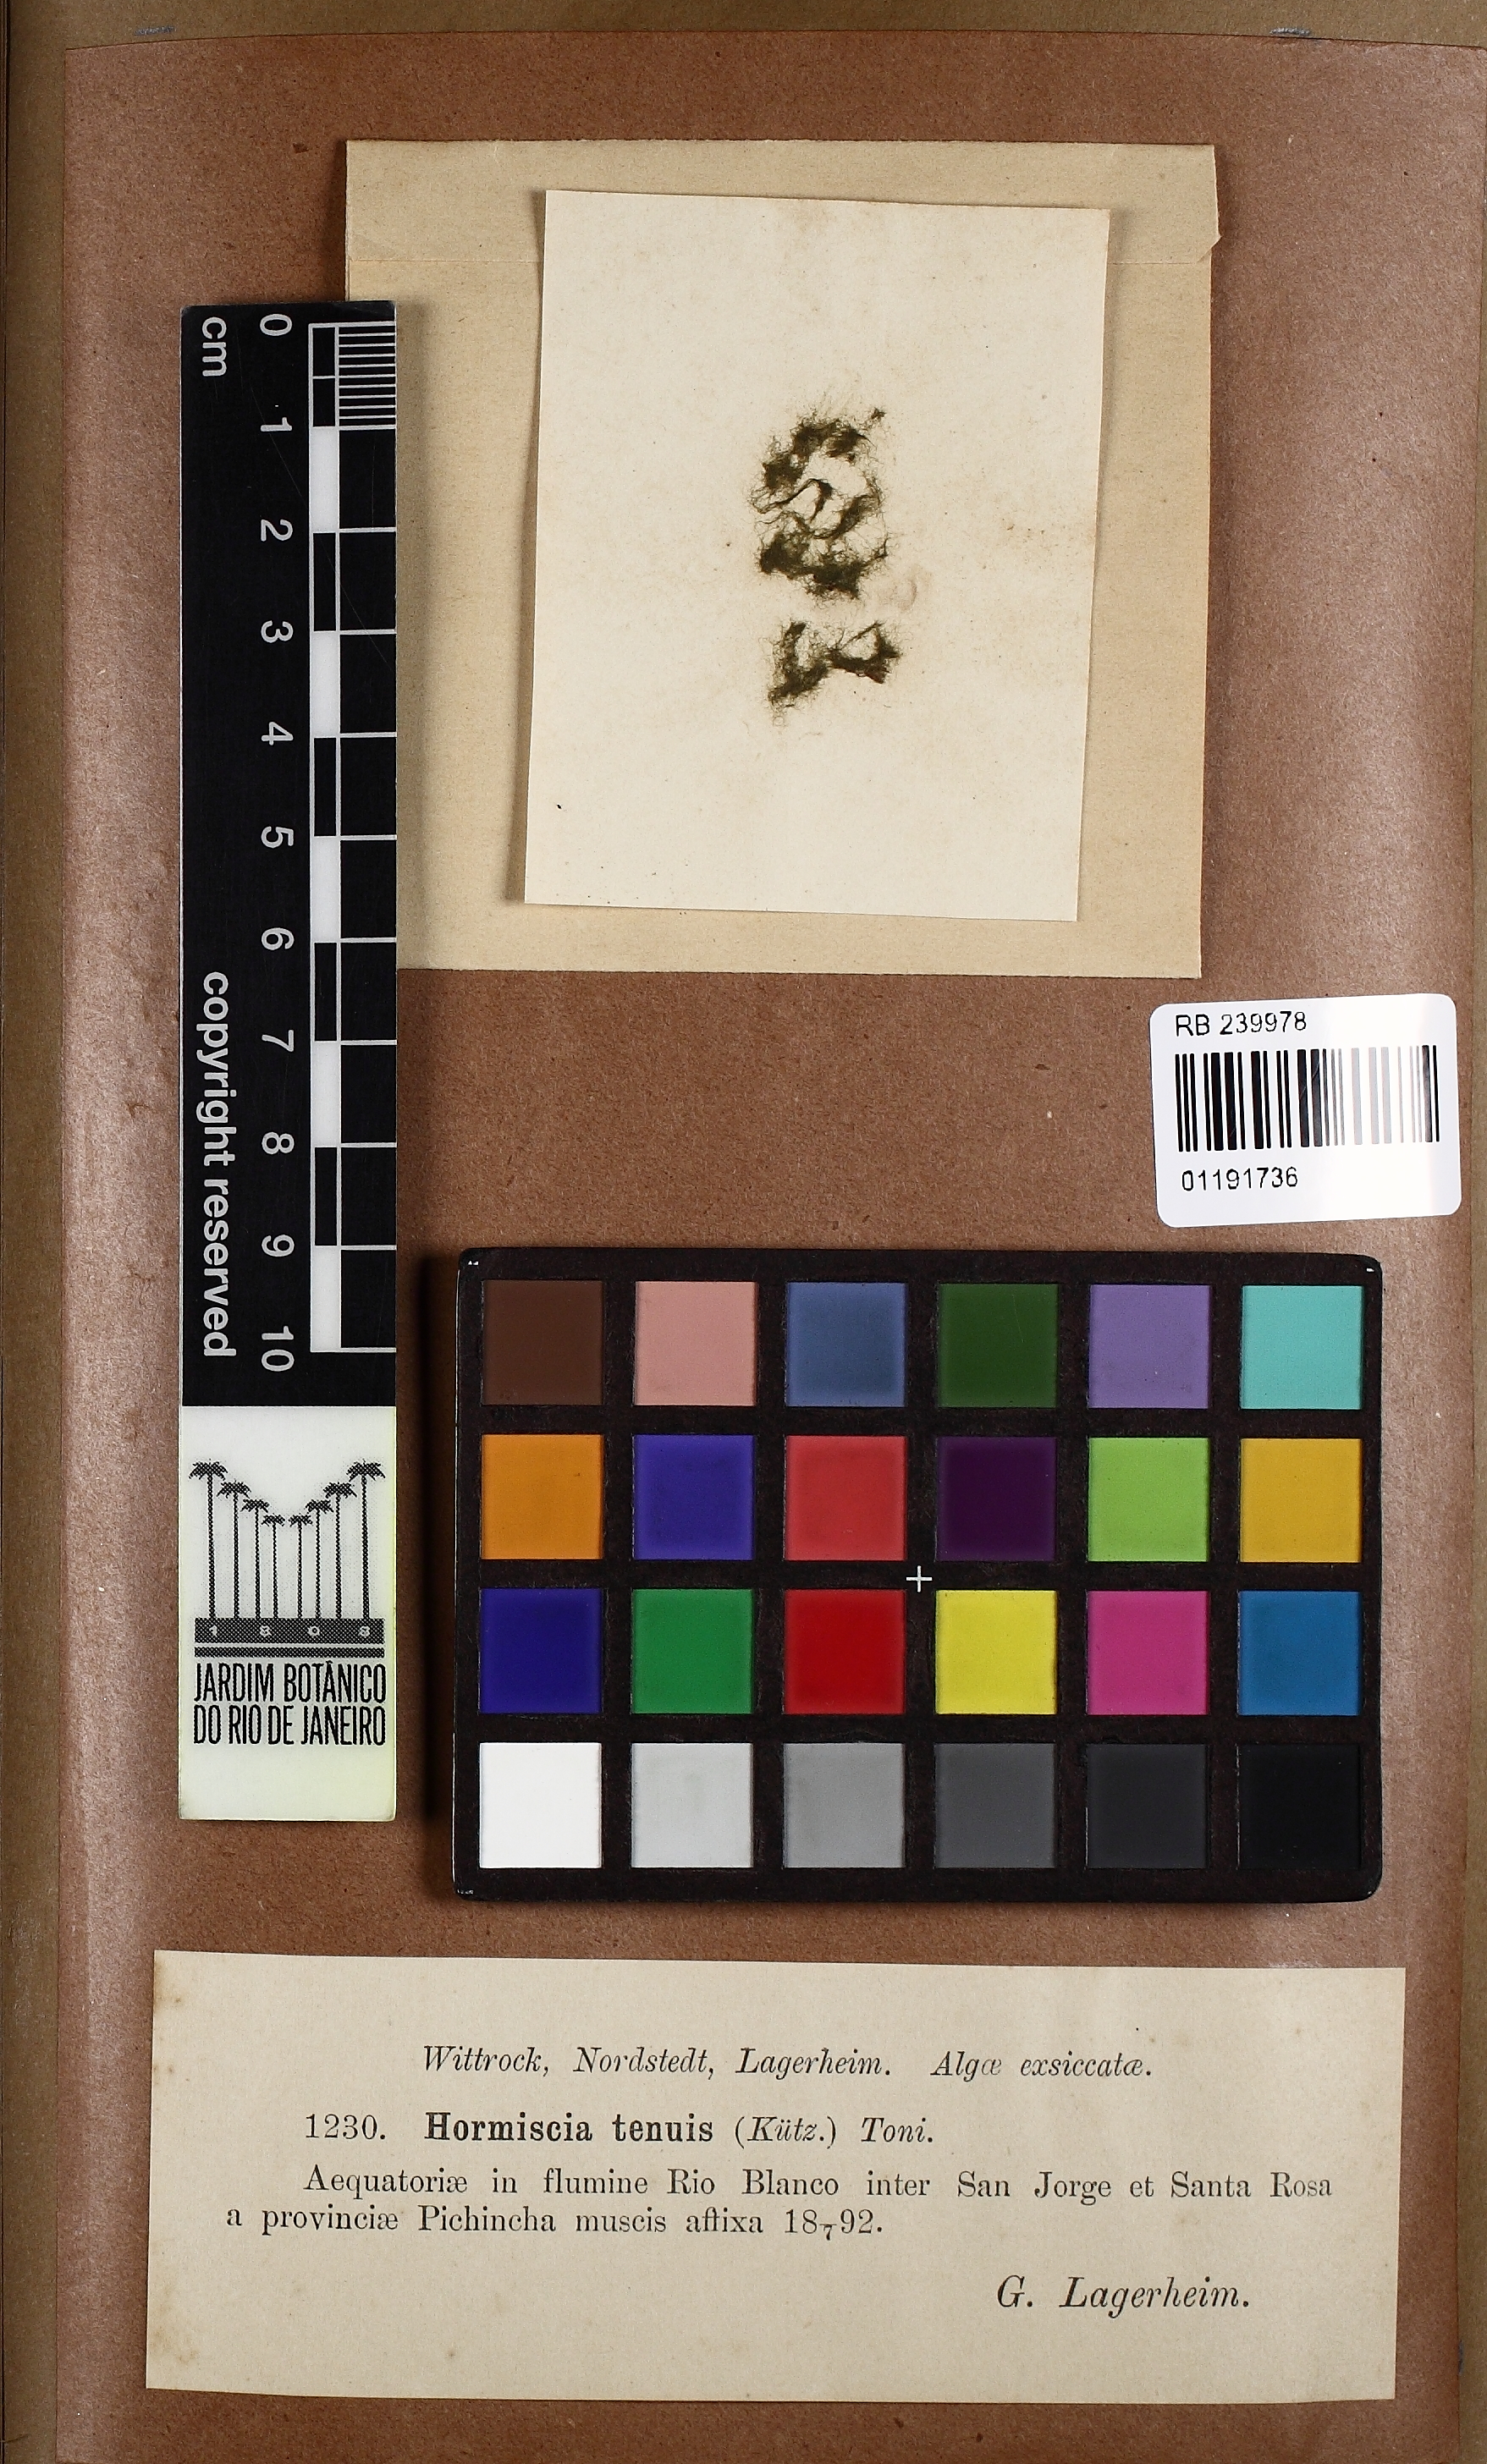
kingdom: Plantae
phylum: Chlorophyta
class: Ulvophyceae
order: Cladophorales
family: Cladophoraceae
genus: Hormiscia
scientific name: Hormiscia
